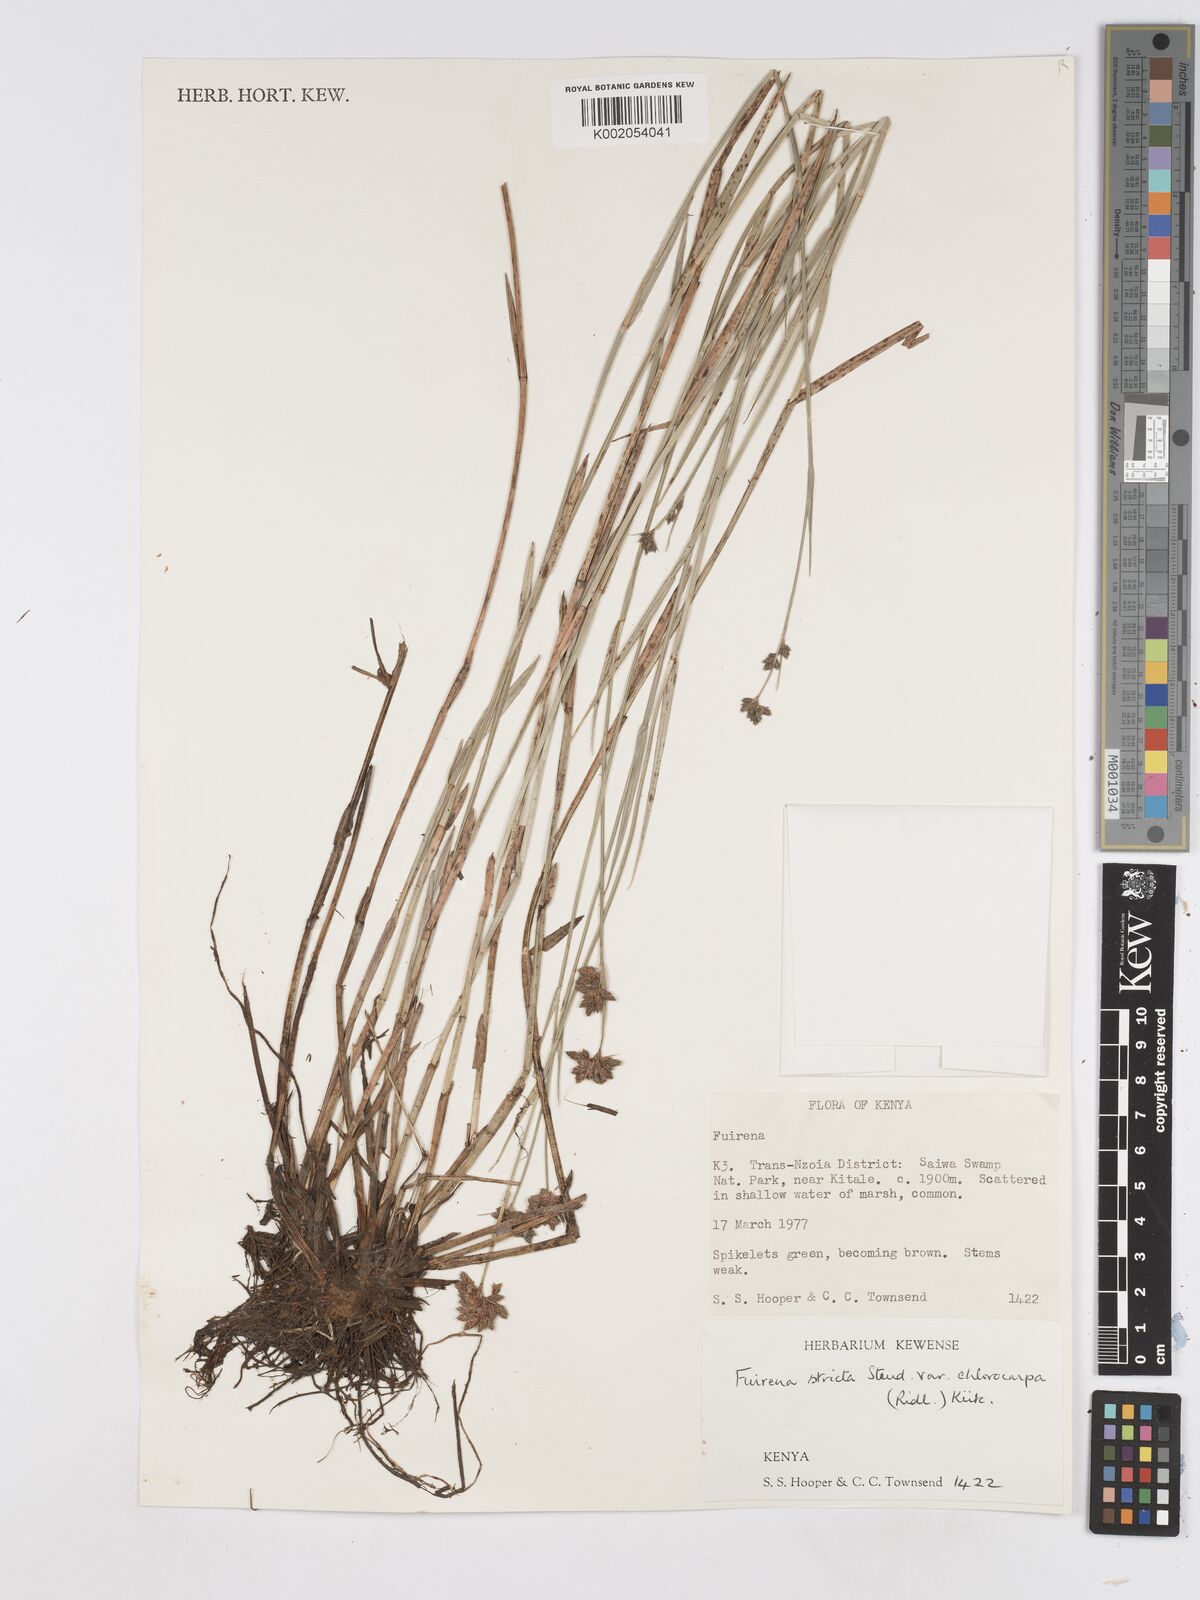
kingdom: Plantae
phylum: Tracheophyta
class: Liliopsida
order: Poales
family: Cyperaceae
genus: Fuirena
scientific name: Fuirena stricta
